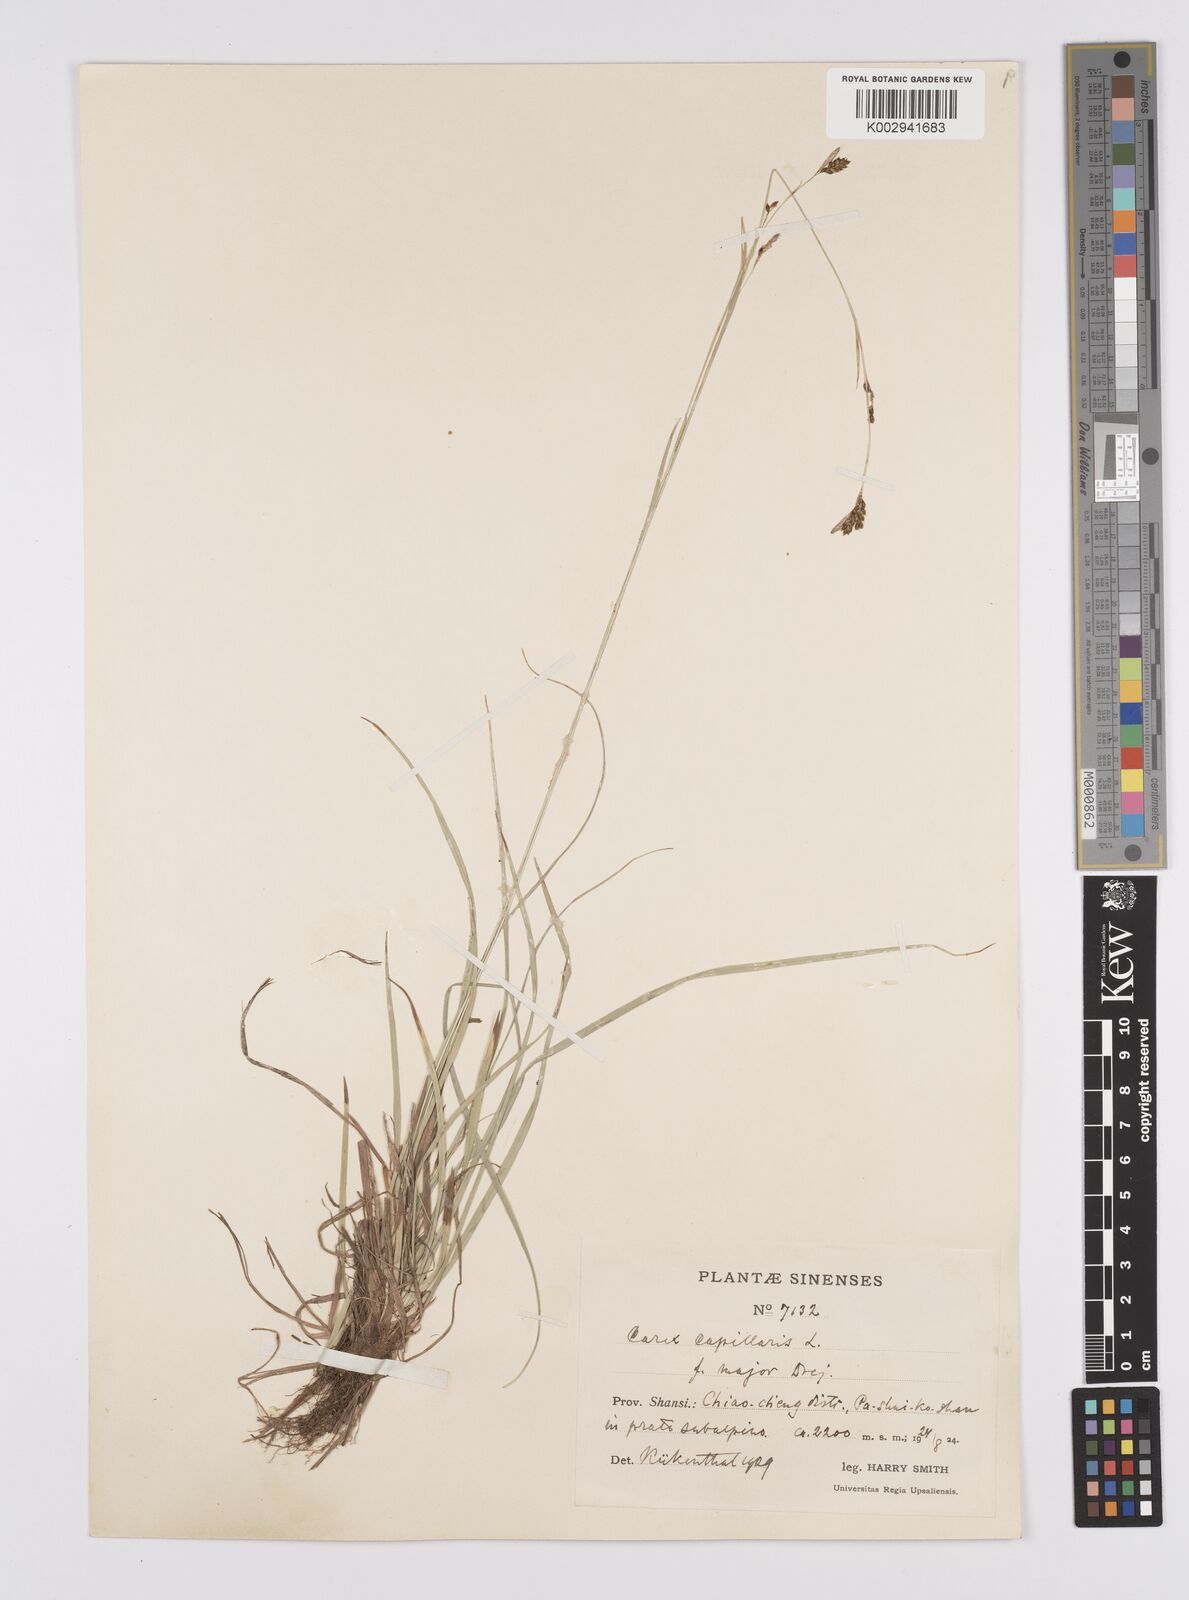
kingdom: Plantae
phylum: Tracheophyta
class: Liliopsida
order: Poales
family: Cyperaceae
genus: Carex
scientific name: Carex capillaris
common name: Hair sedge
